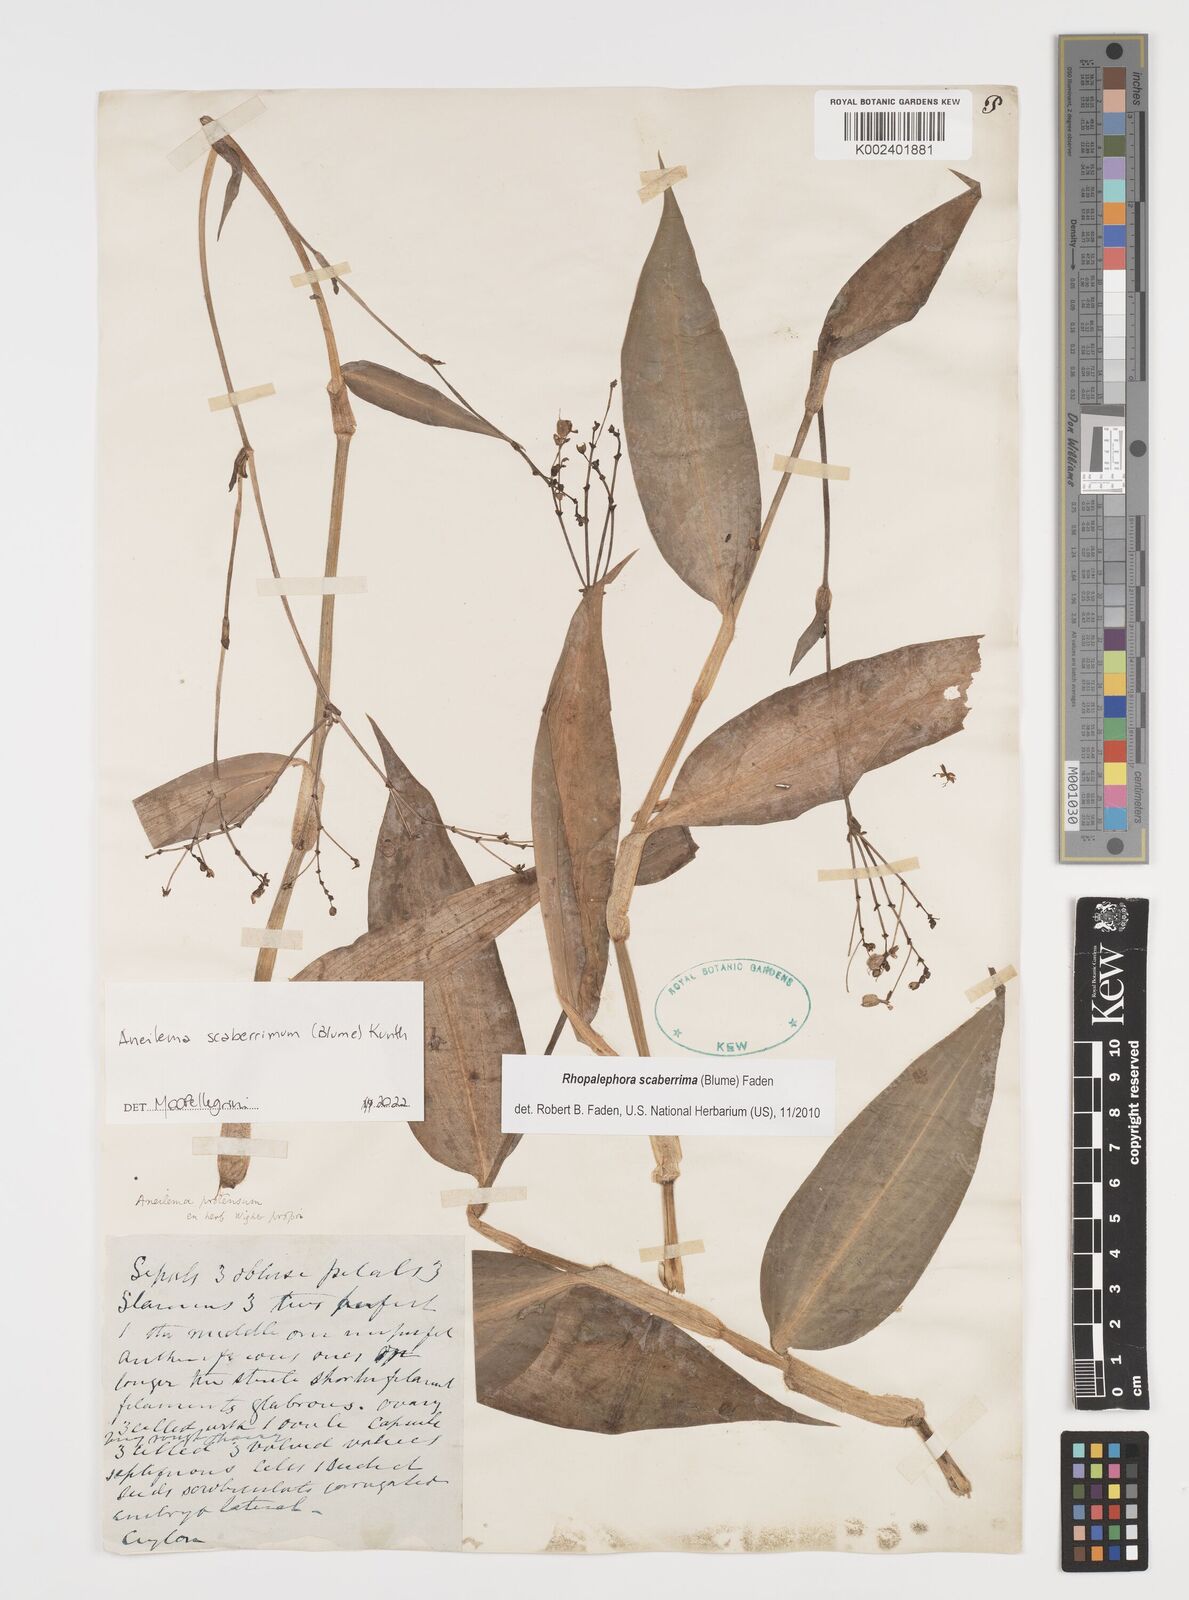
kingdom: Plantae
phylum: Tracheophyta
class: Liliopsida
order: Commelinales
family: Commelinaceae
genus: Rhopalephora
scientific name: Rhopalephora scaberrima
